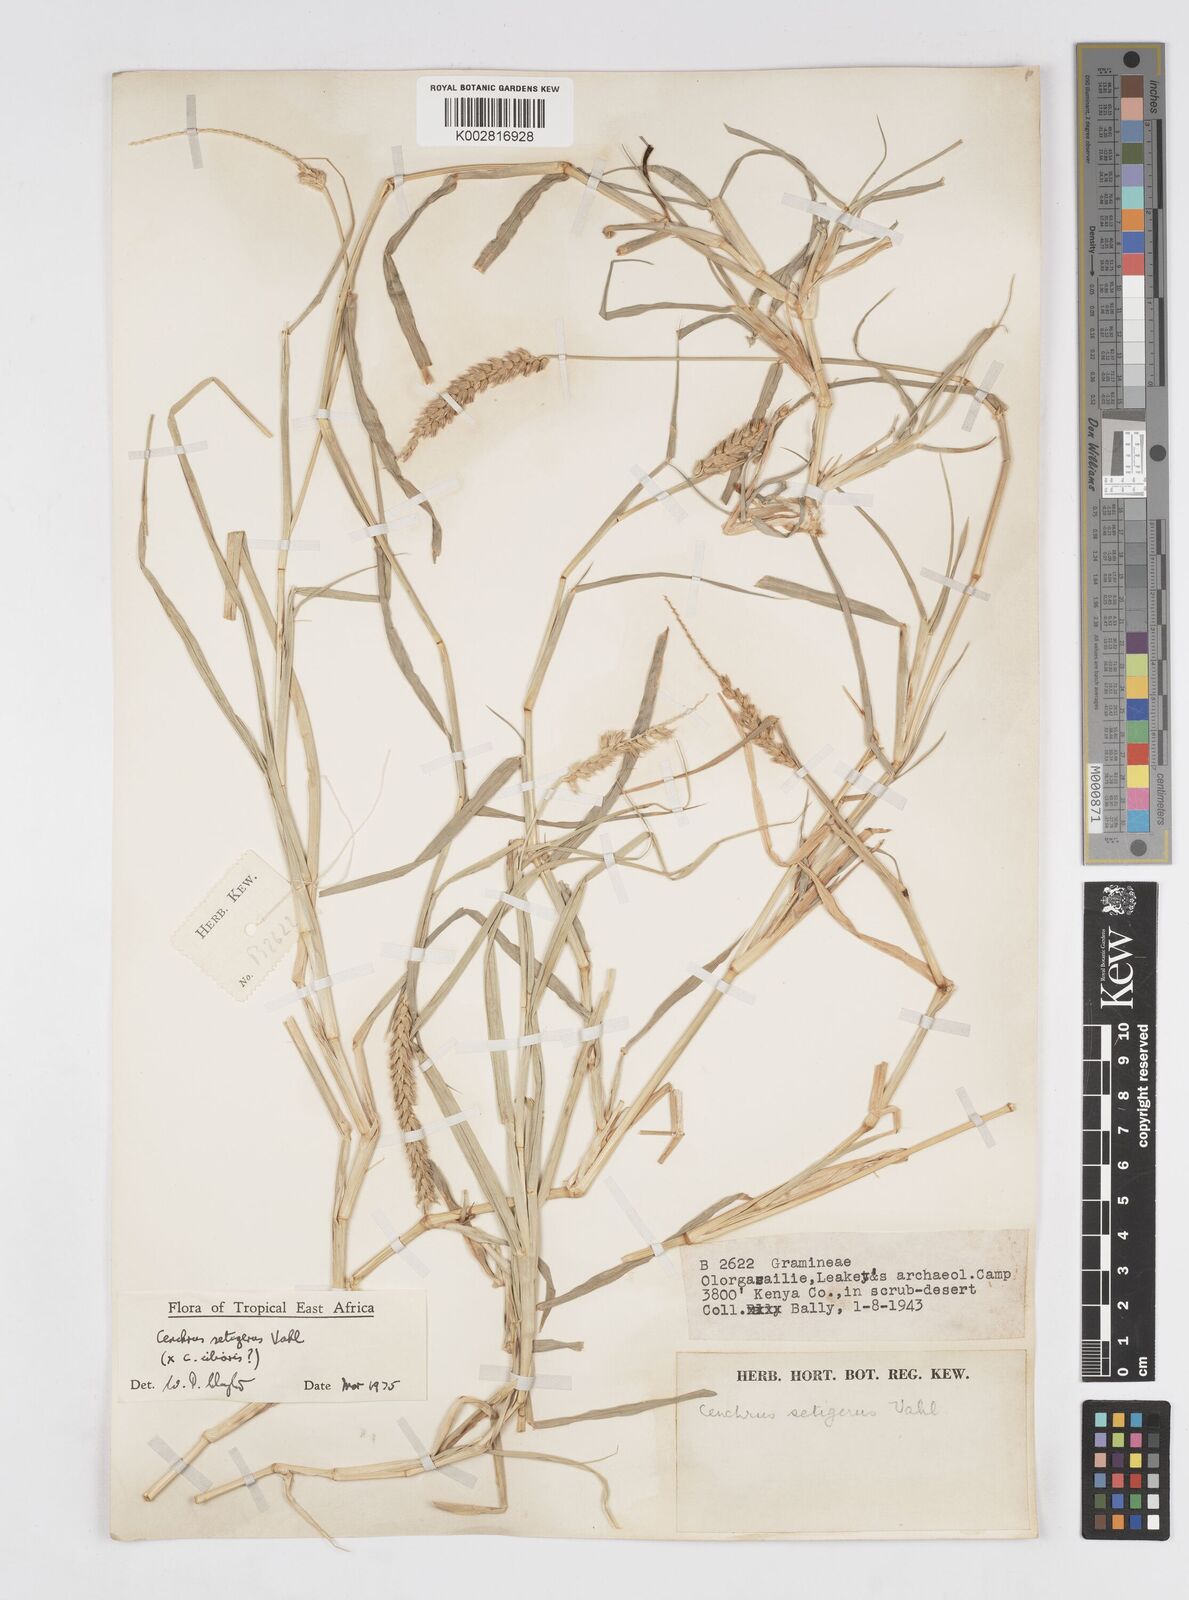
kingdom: Plantae
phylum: Tracheophyta
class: Liliopsida
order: Poales
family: Poaceae
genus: Cenchrus
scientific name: Cenchrus setigerus
